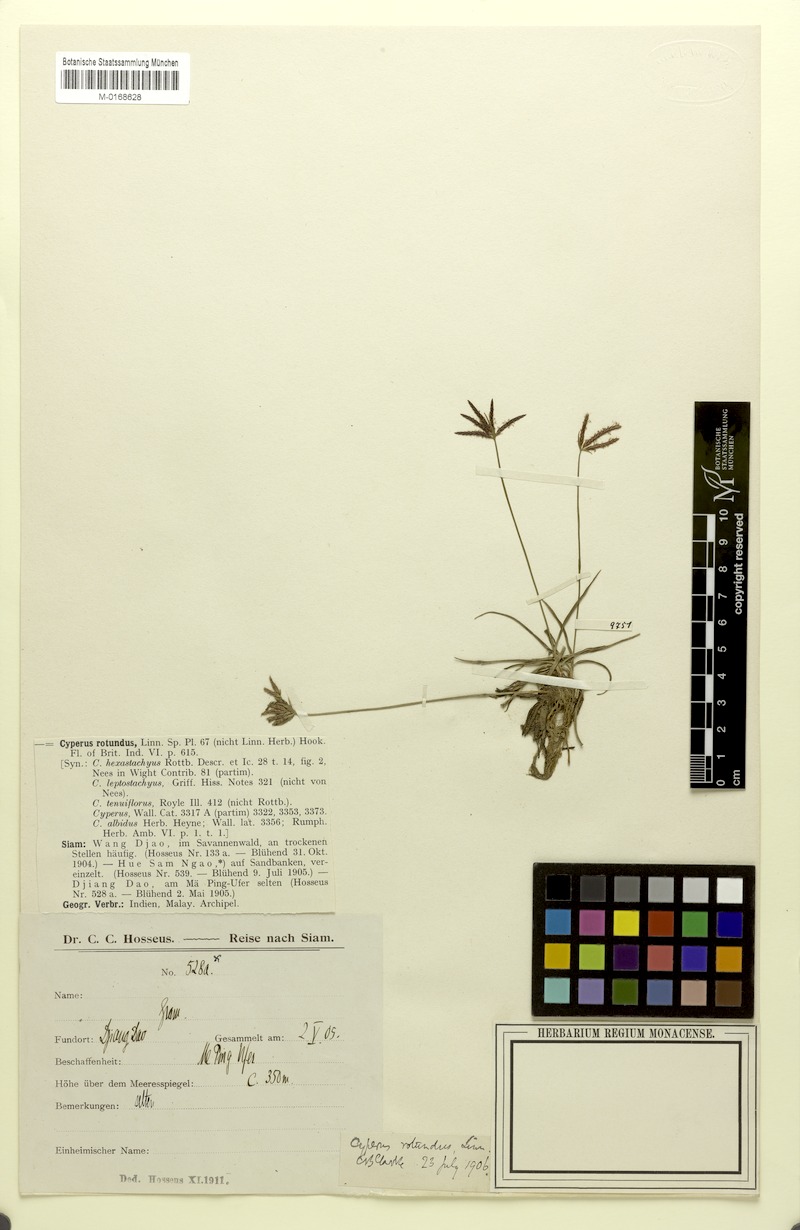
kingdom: Plantae
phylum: Tracheophyta
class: Liliopsida
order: Poales
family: Cyperaceae
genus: Cyperus
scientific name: Cyperus rotundus
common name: Nutgrass
